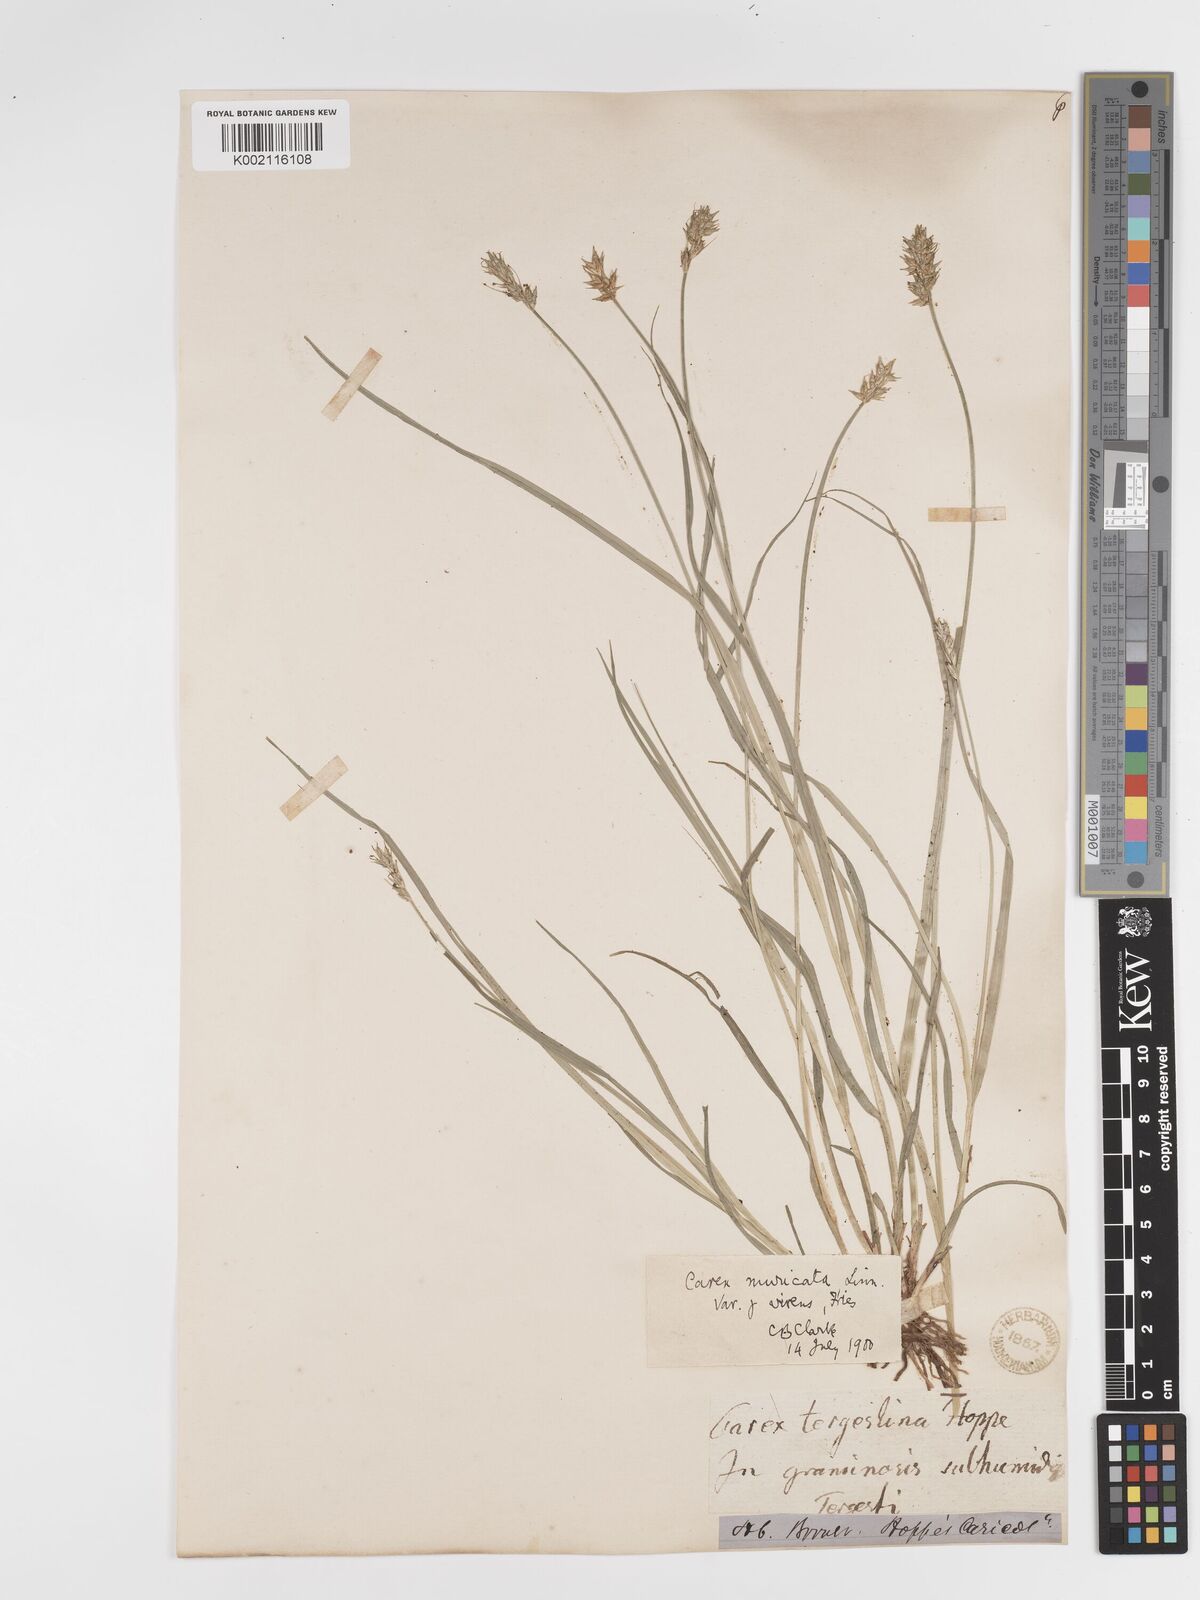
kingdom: Plantae
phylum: Tracheophyta
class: Liliopsida
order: Poales
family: Cyperaceae
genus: Carex
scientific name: Carex spicata
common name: Spiked sedge
